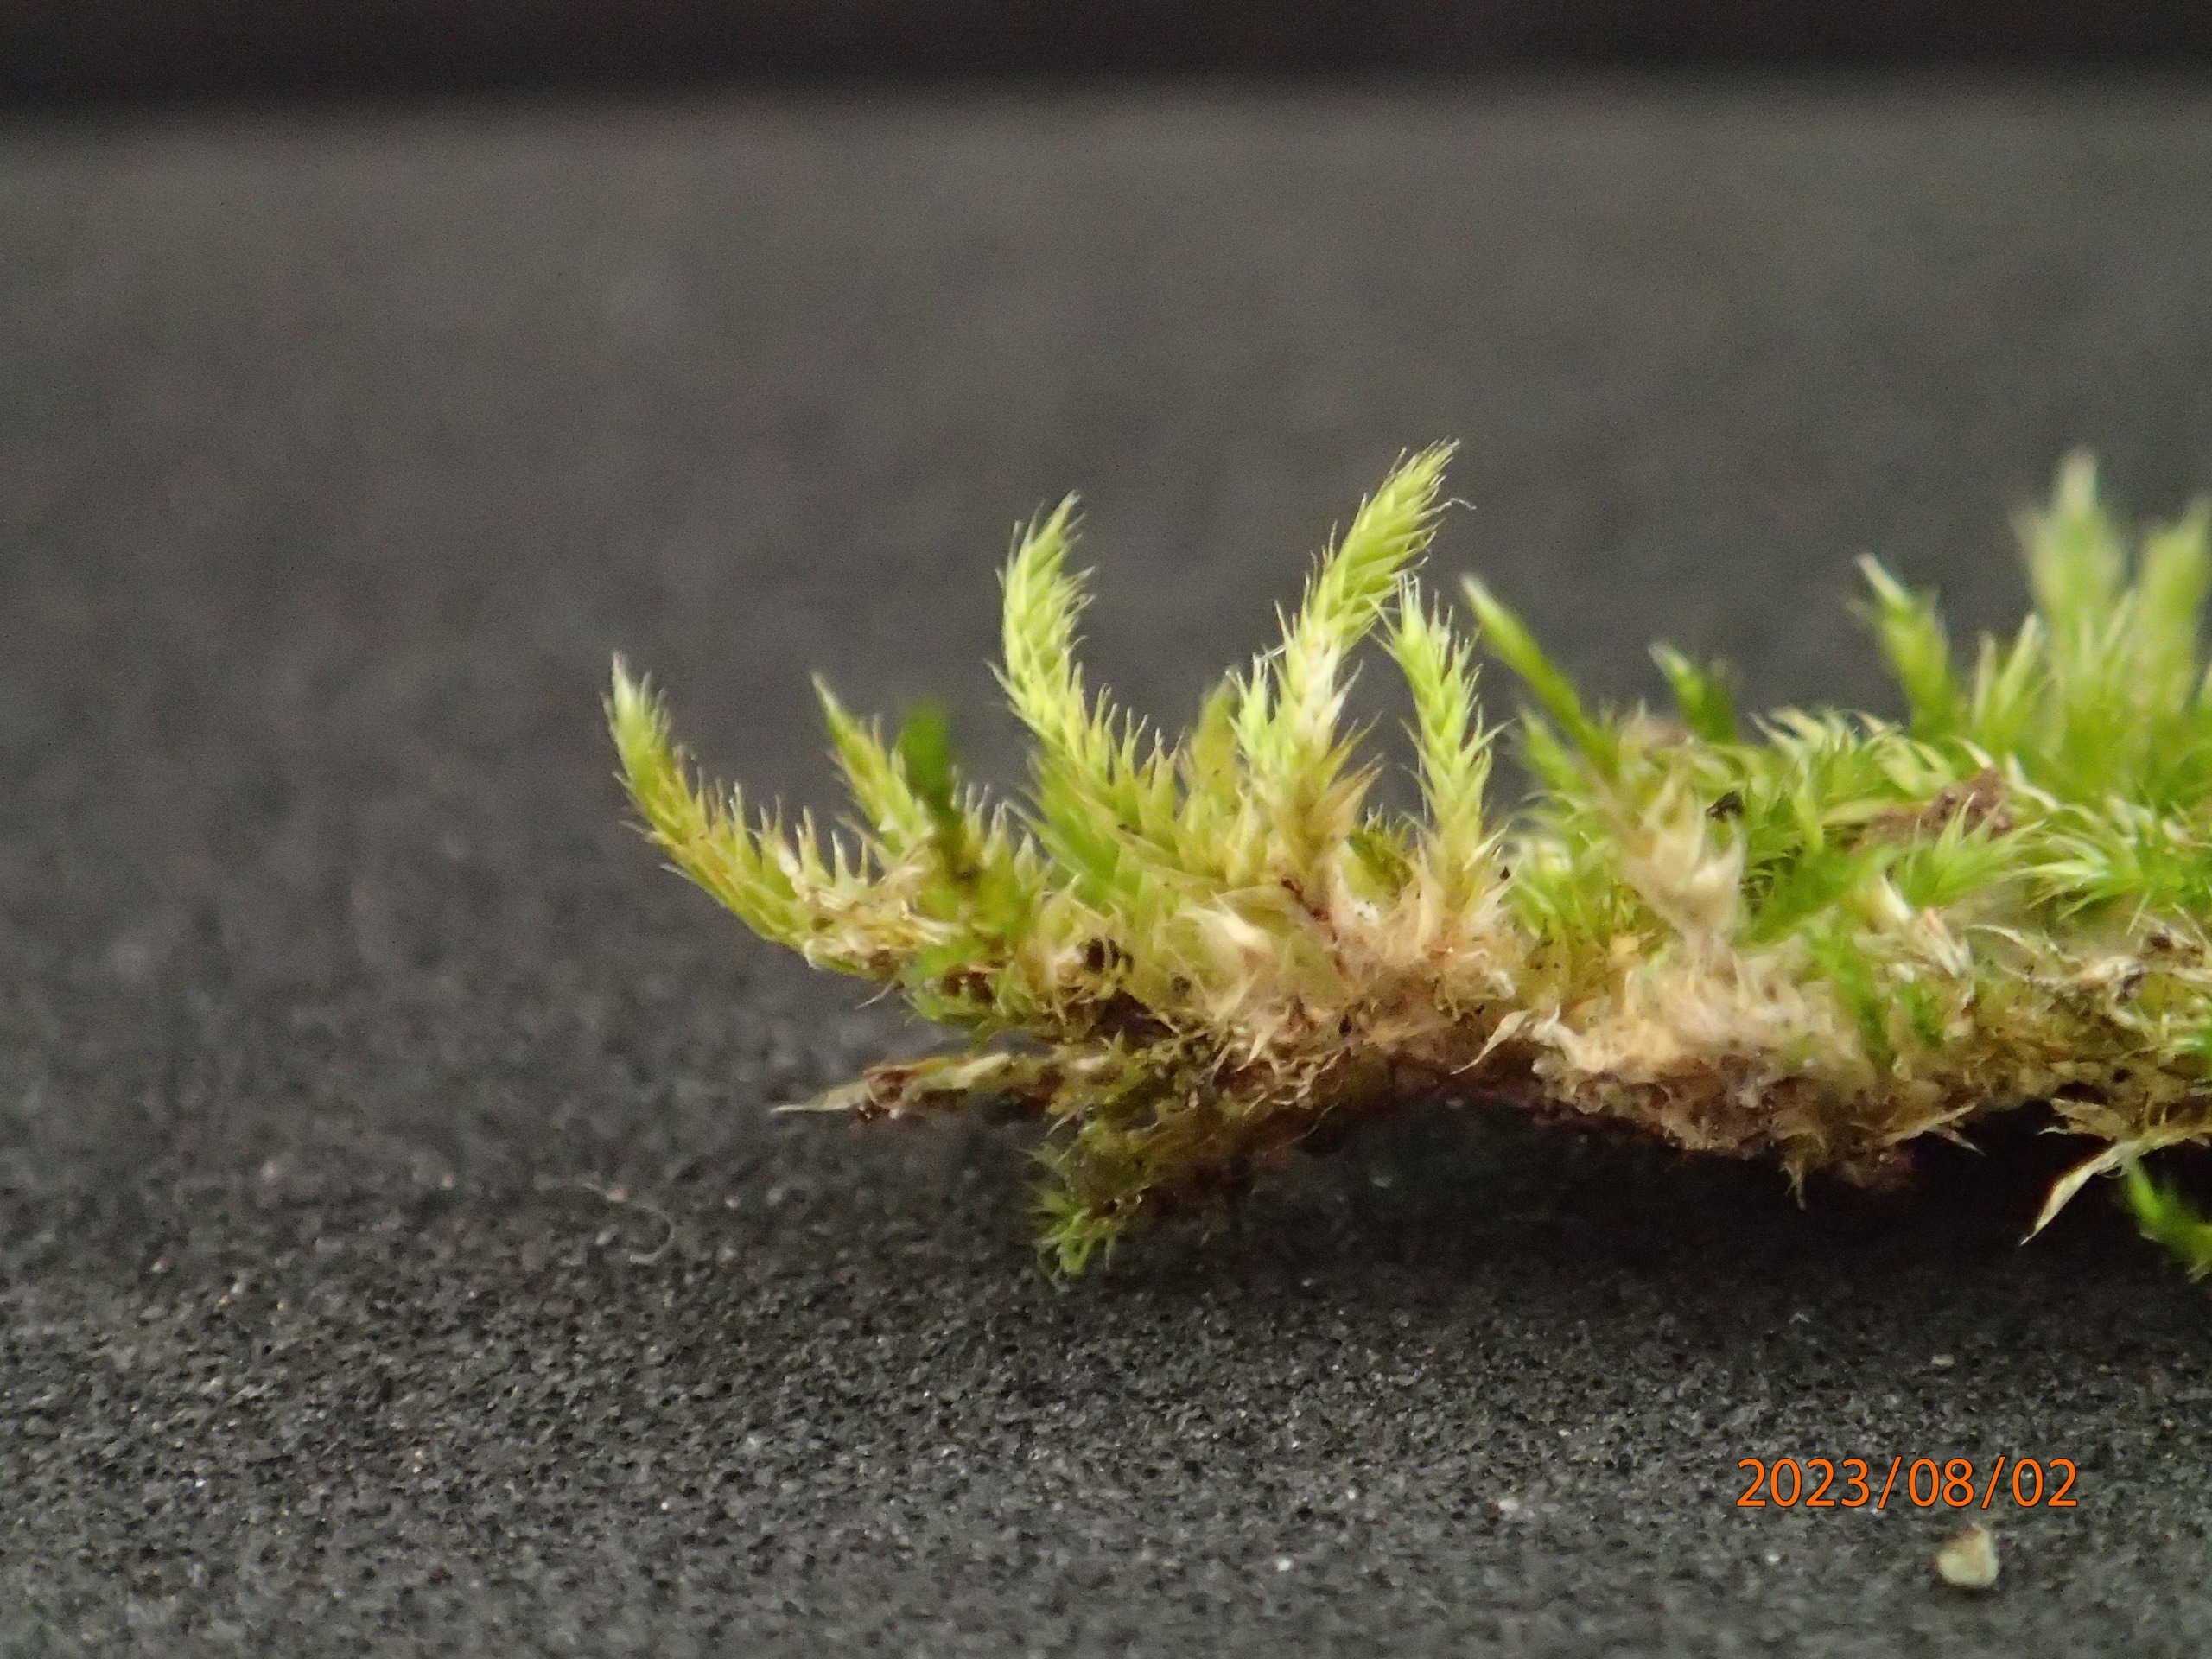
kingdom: Plantae
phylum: Bryophyta
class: Bryopsida
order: Hypnales
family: Hypnaceae
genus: Hypnum
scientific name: Hypnum resupinatum
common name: Ret cypresmos
